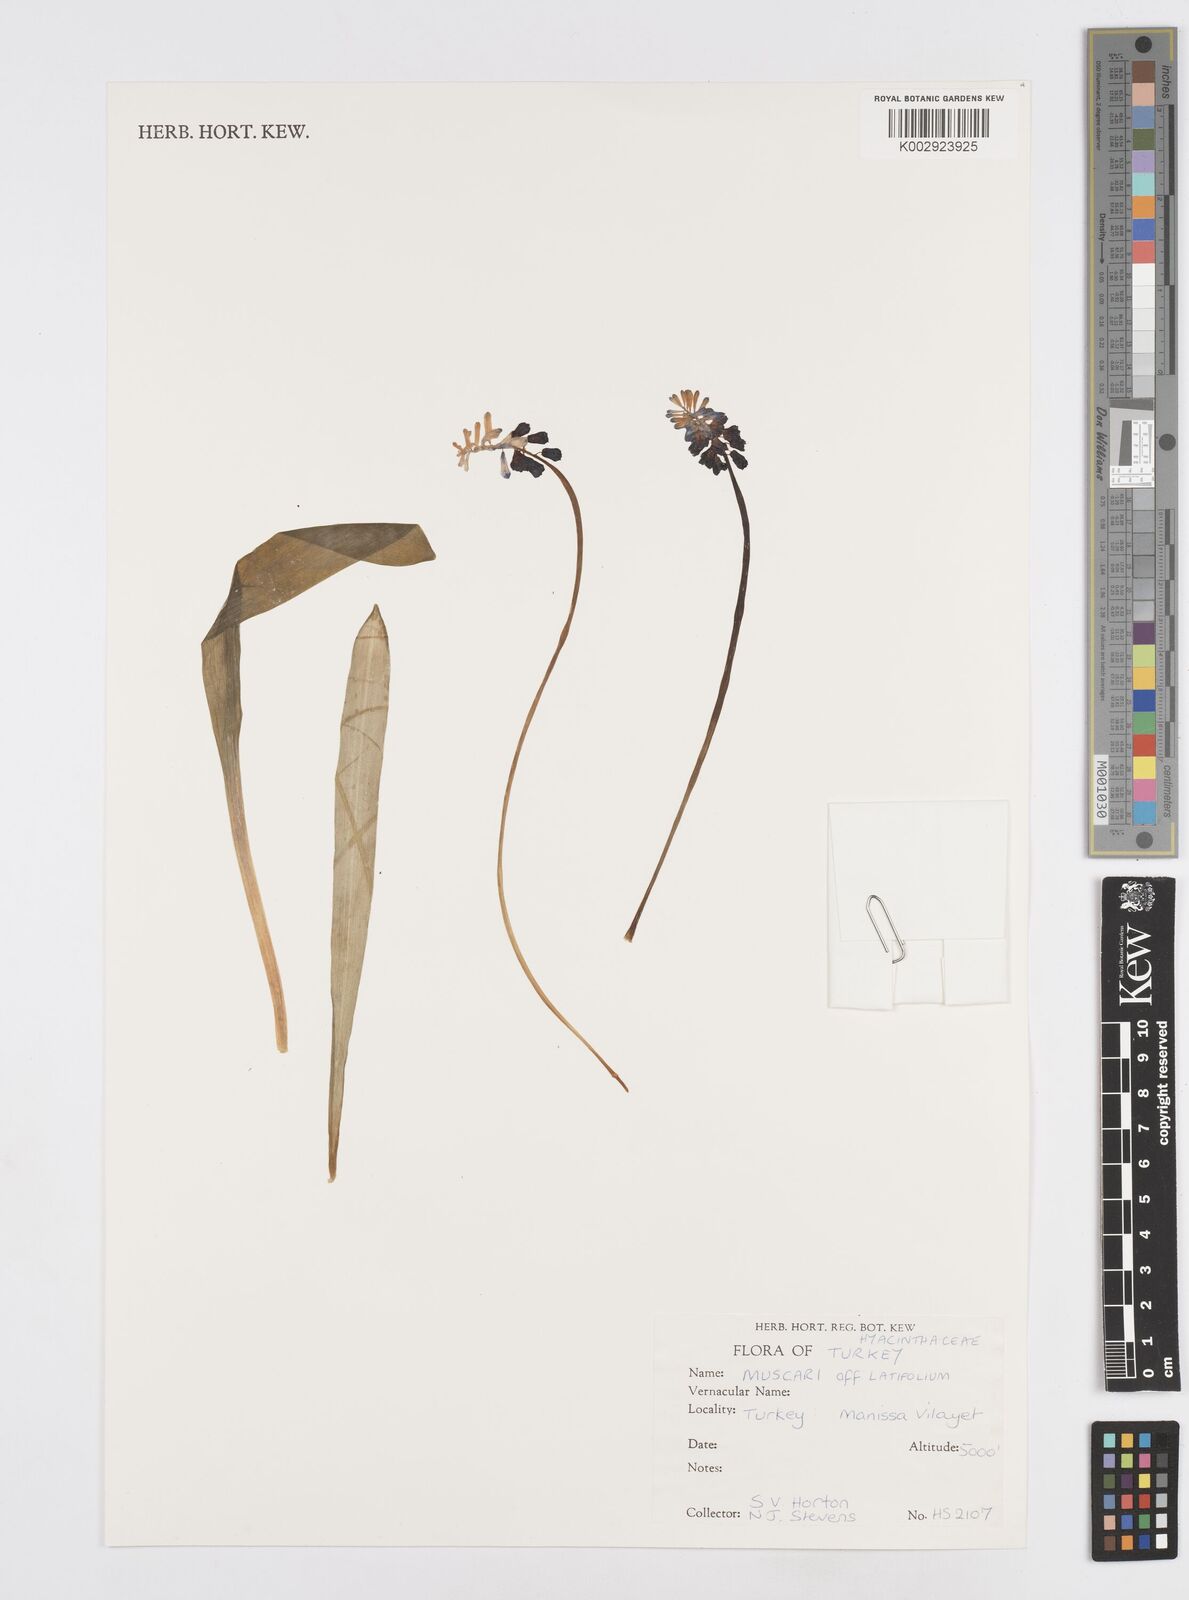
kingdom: Plantae
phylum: Tracheophyta
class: Liliopsida
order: Asparagales
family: Asparagaceae
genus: Muscari
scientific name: Muscari latifolium
